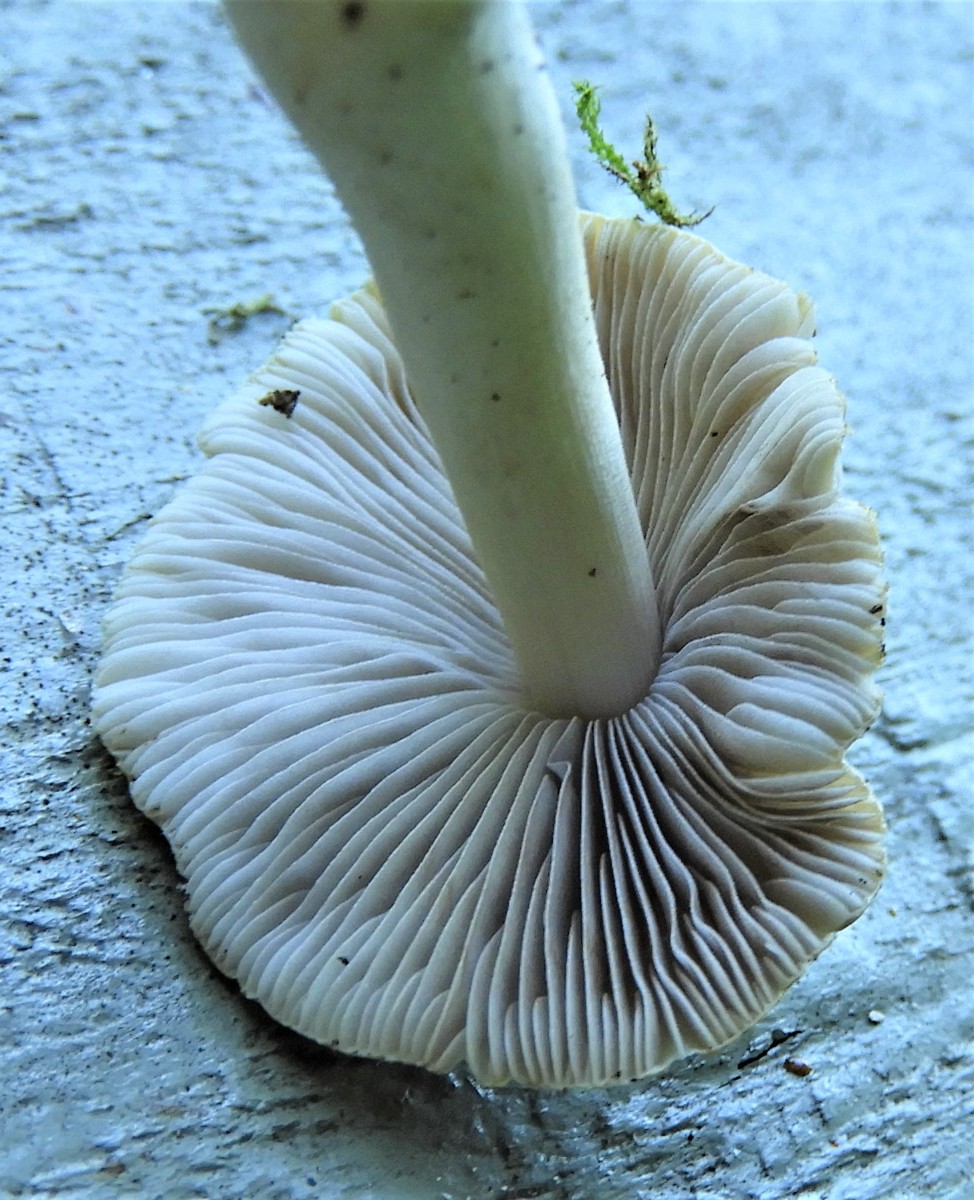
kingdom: Fungi
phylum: Basidiomycota
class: Agaricomycetes
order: Agaricales
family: Inocybaceae
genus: Inocybe
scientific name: Inocybe mixtilis
